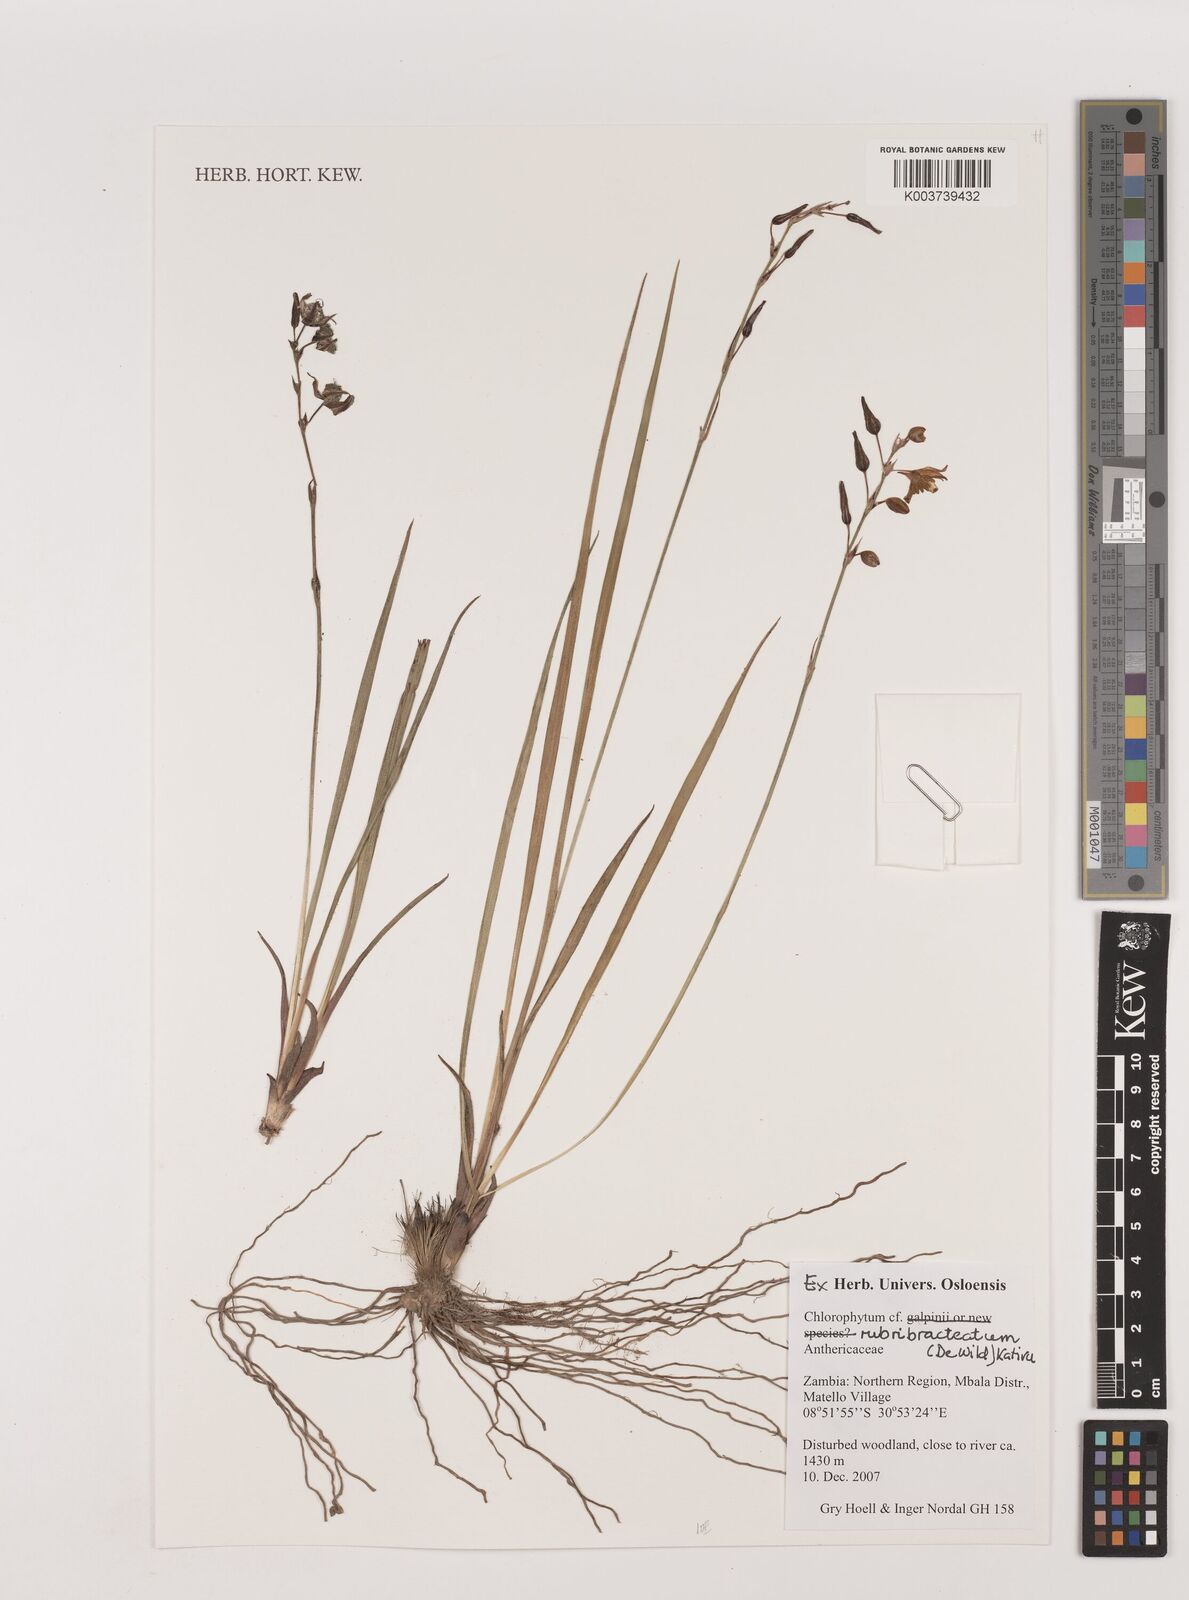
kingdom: Plantae
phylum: Tracheophyta
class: Liliopsida
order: Asparagales
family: Asparagaceae
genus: Chlorophytum
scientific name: Chlorophytum rubribracteatum
